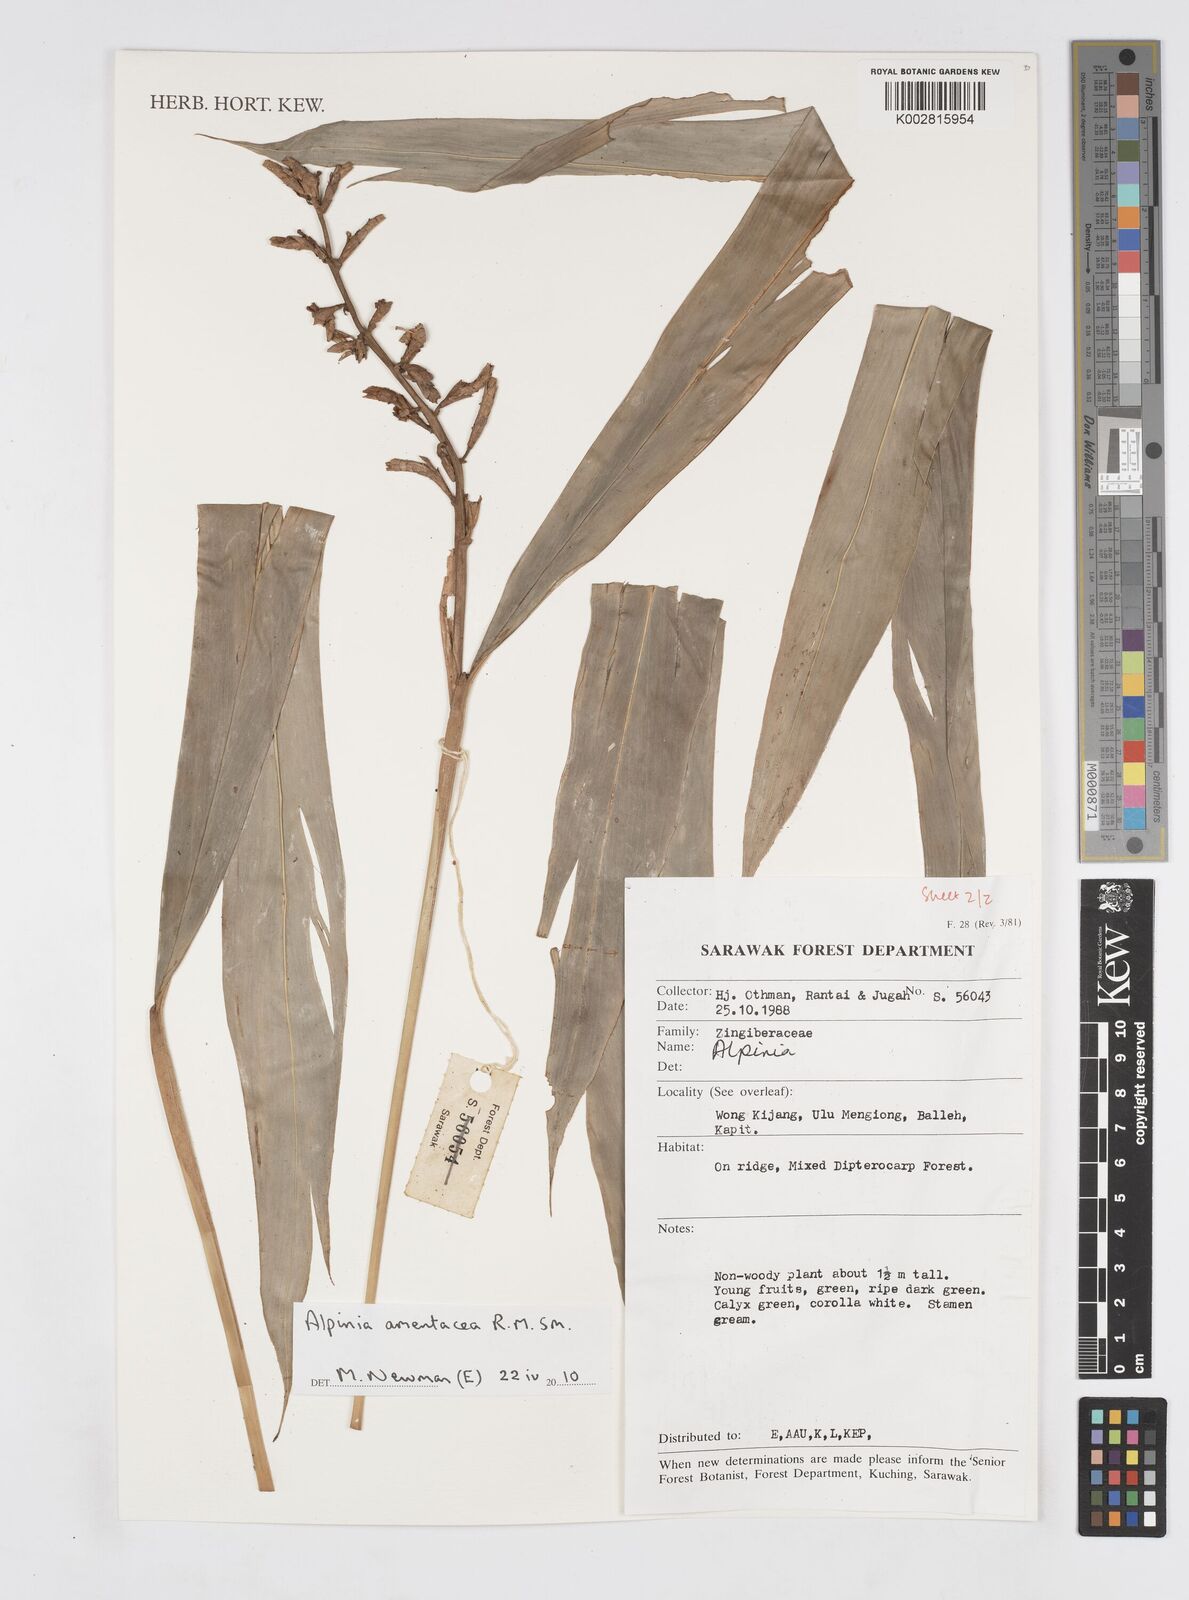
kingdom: Plantae
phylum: Tracheophyta
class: Liliopsida
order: Zingiberales
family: Zingiberaceae
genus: Alpinia
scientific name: Alpinia amentacea
